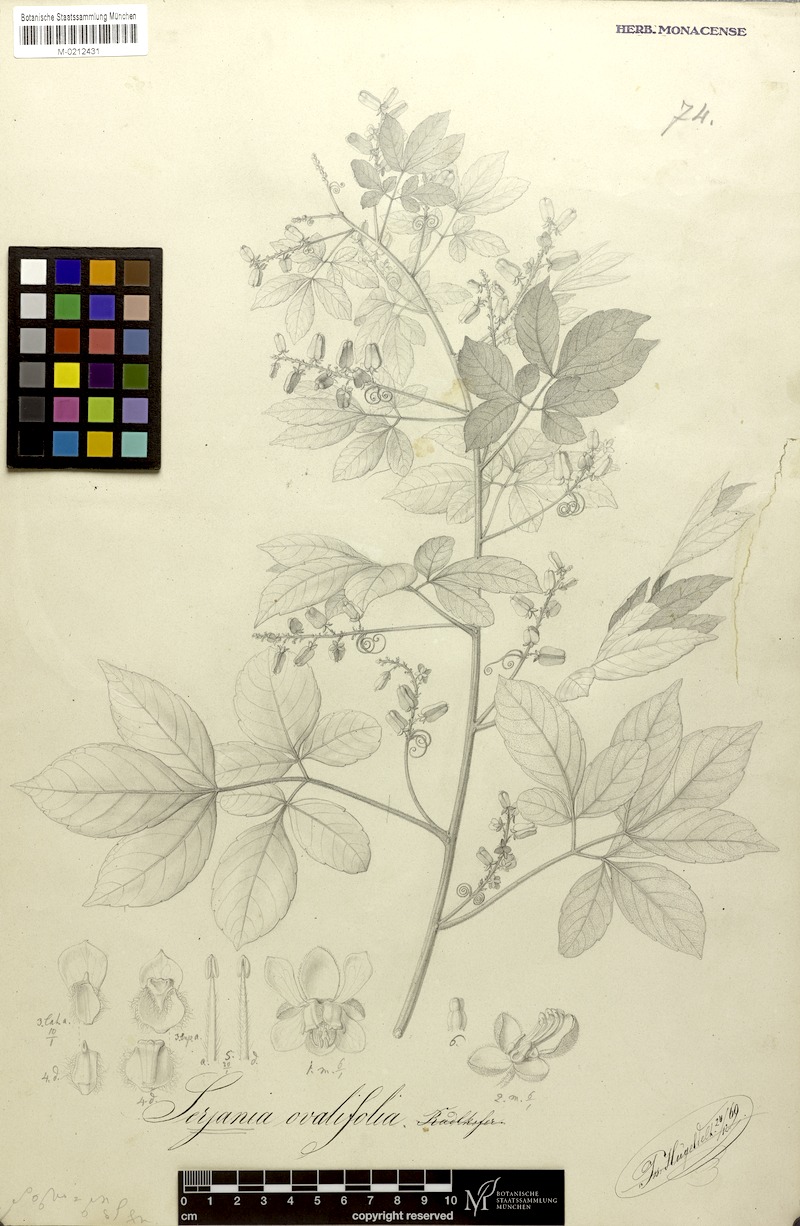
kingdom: Plantae
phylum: Tracheophyta
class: Magnoliopsida
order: Sapindales
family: Sapindaceae
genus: Serjania
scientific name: Serjania ovalifolia
